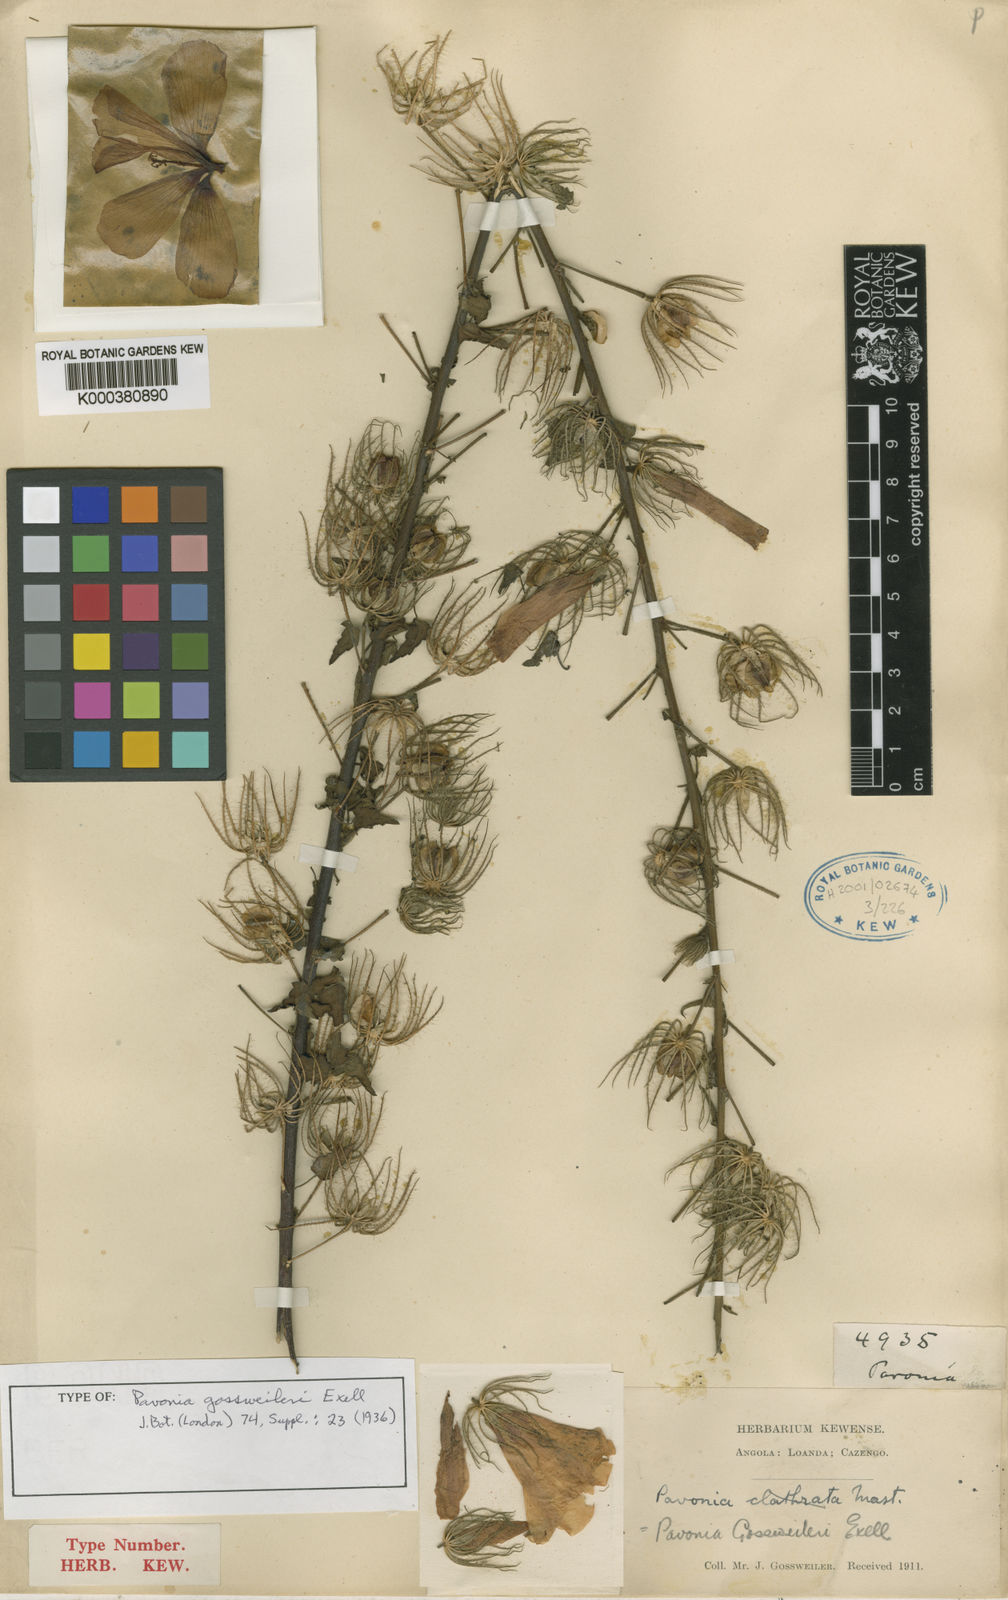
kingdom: Plantae
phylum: Tracheophyta
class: Magnoliopsida
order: Malvales
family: Malvaceae
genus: Pavonia
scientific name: Pavonia gossweileri
